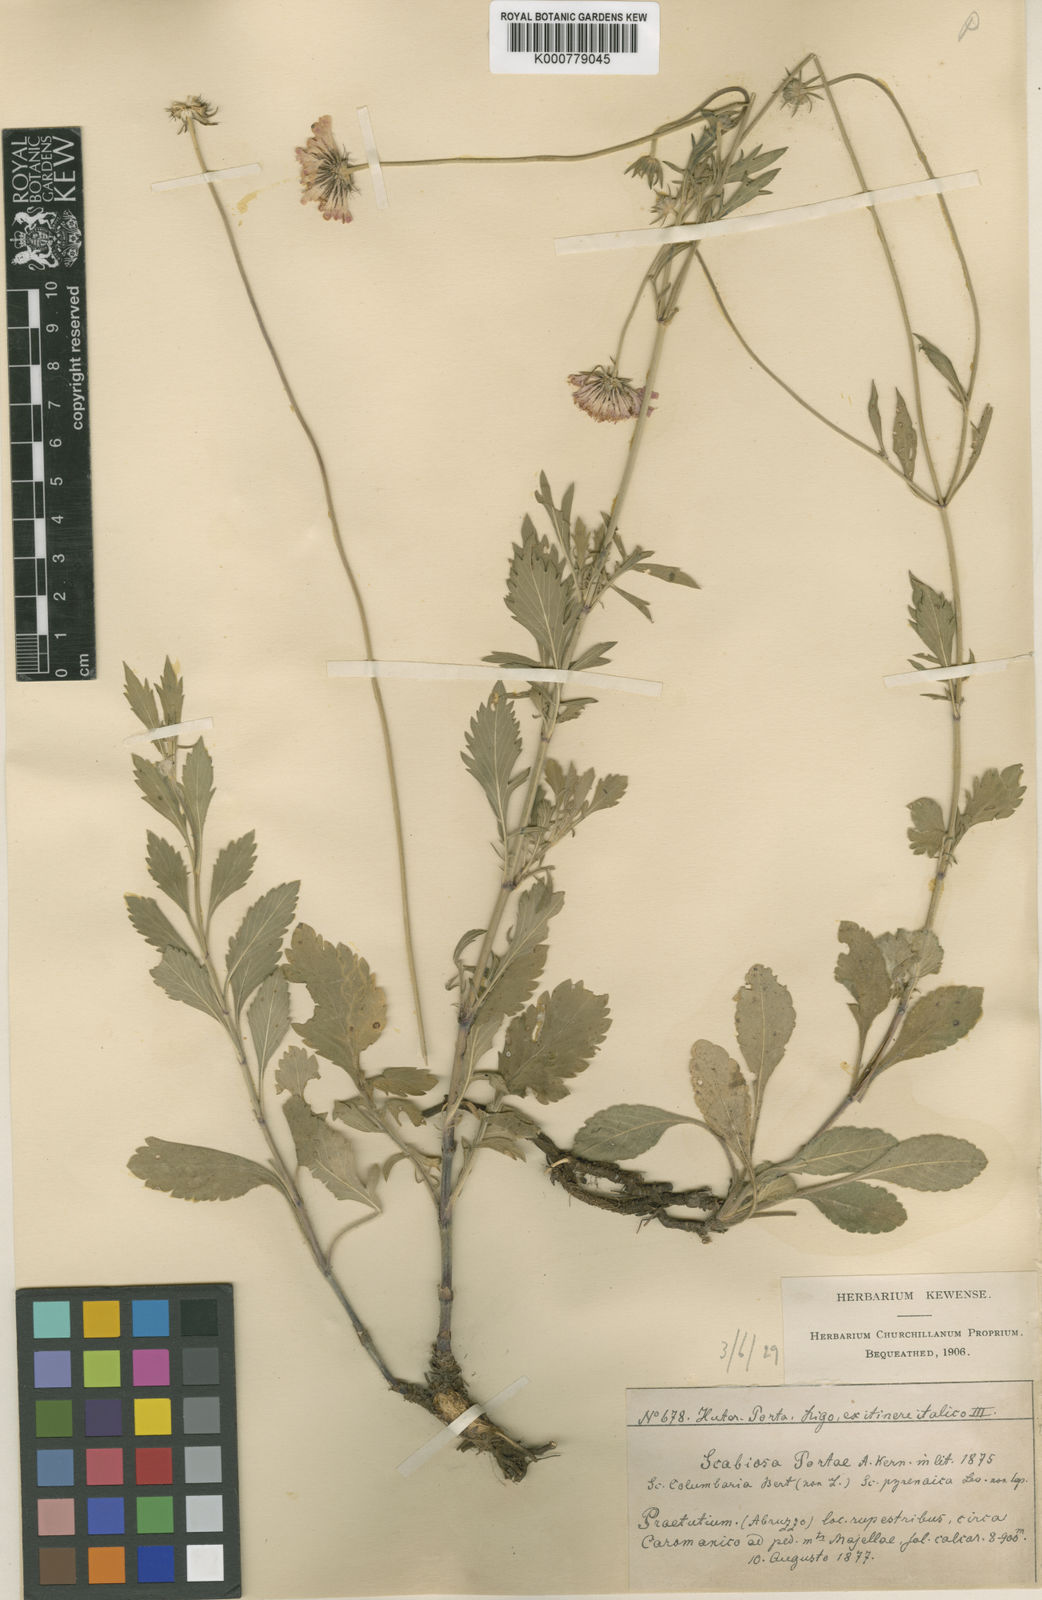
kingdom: Plantae
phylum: Tracheophyta
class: Magnoliopsida
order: Dipsacales
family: Caprifoliaceae
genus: Scabiosa
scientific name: Scabiosa columbaria
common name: Small scabious
